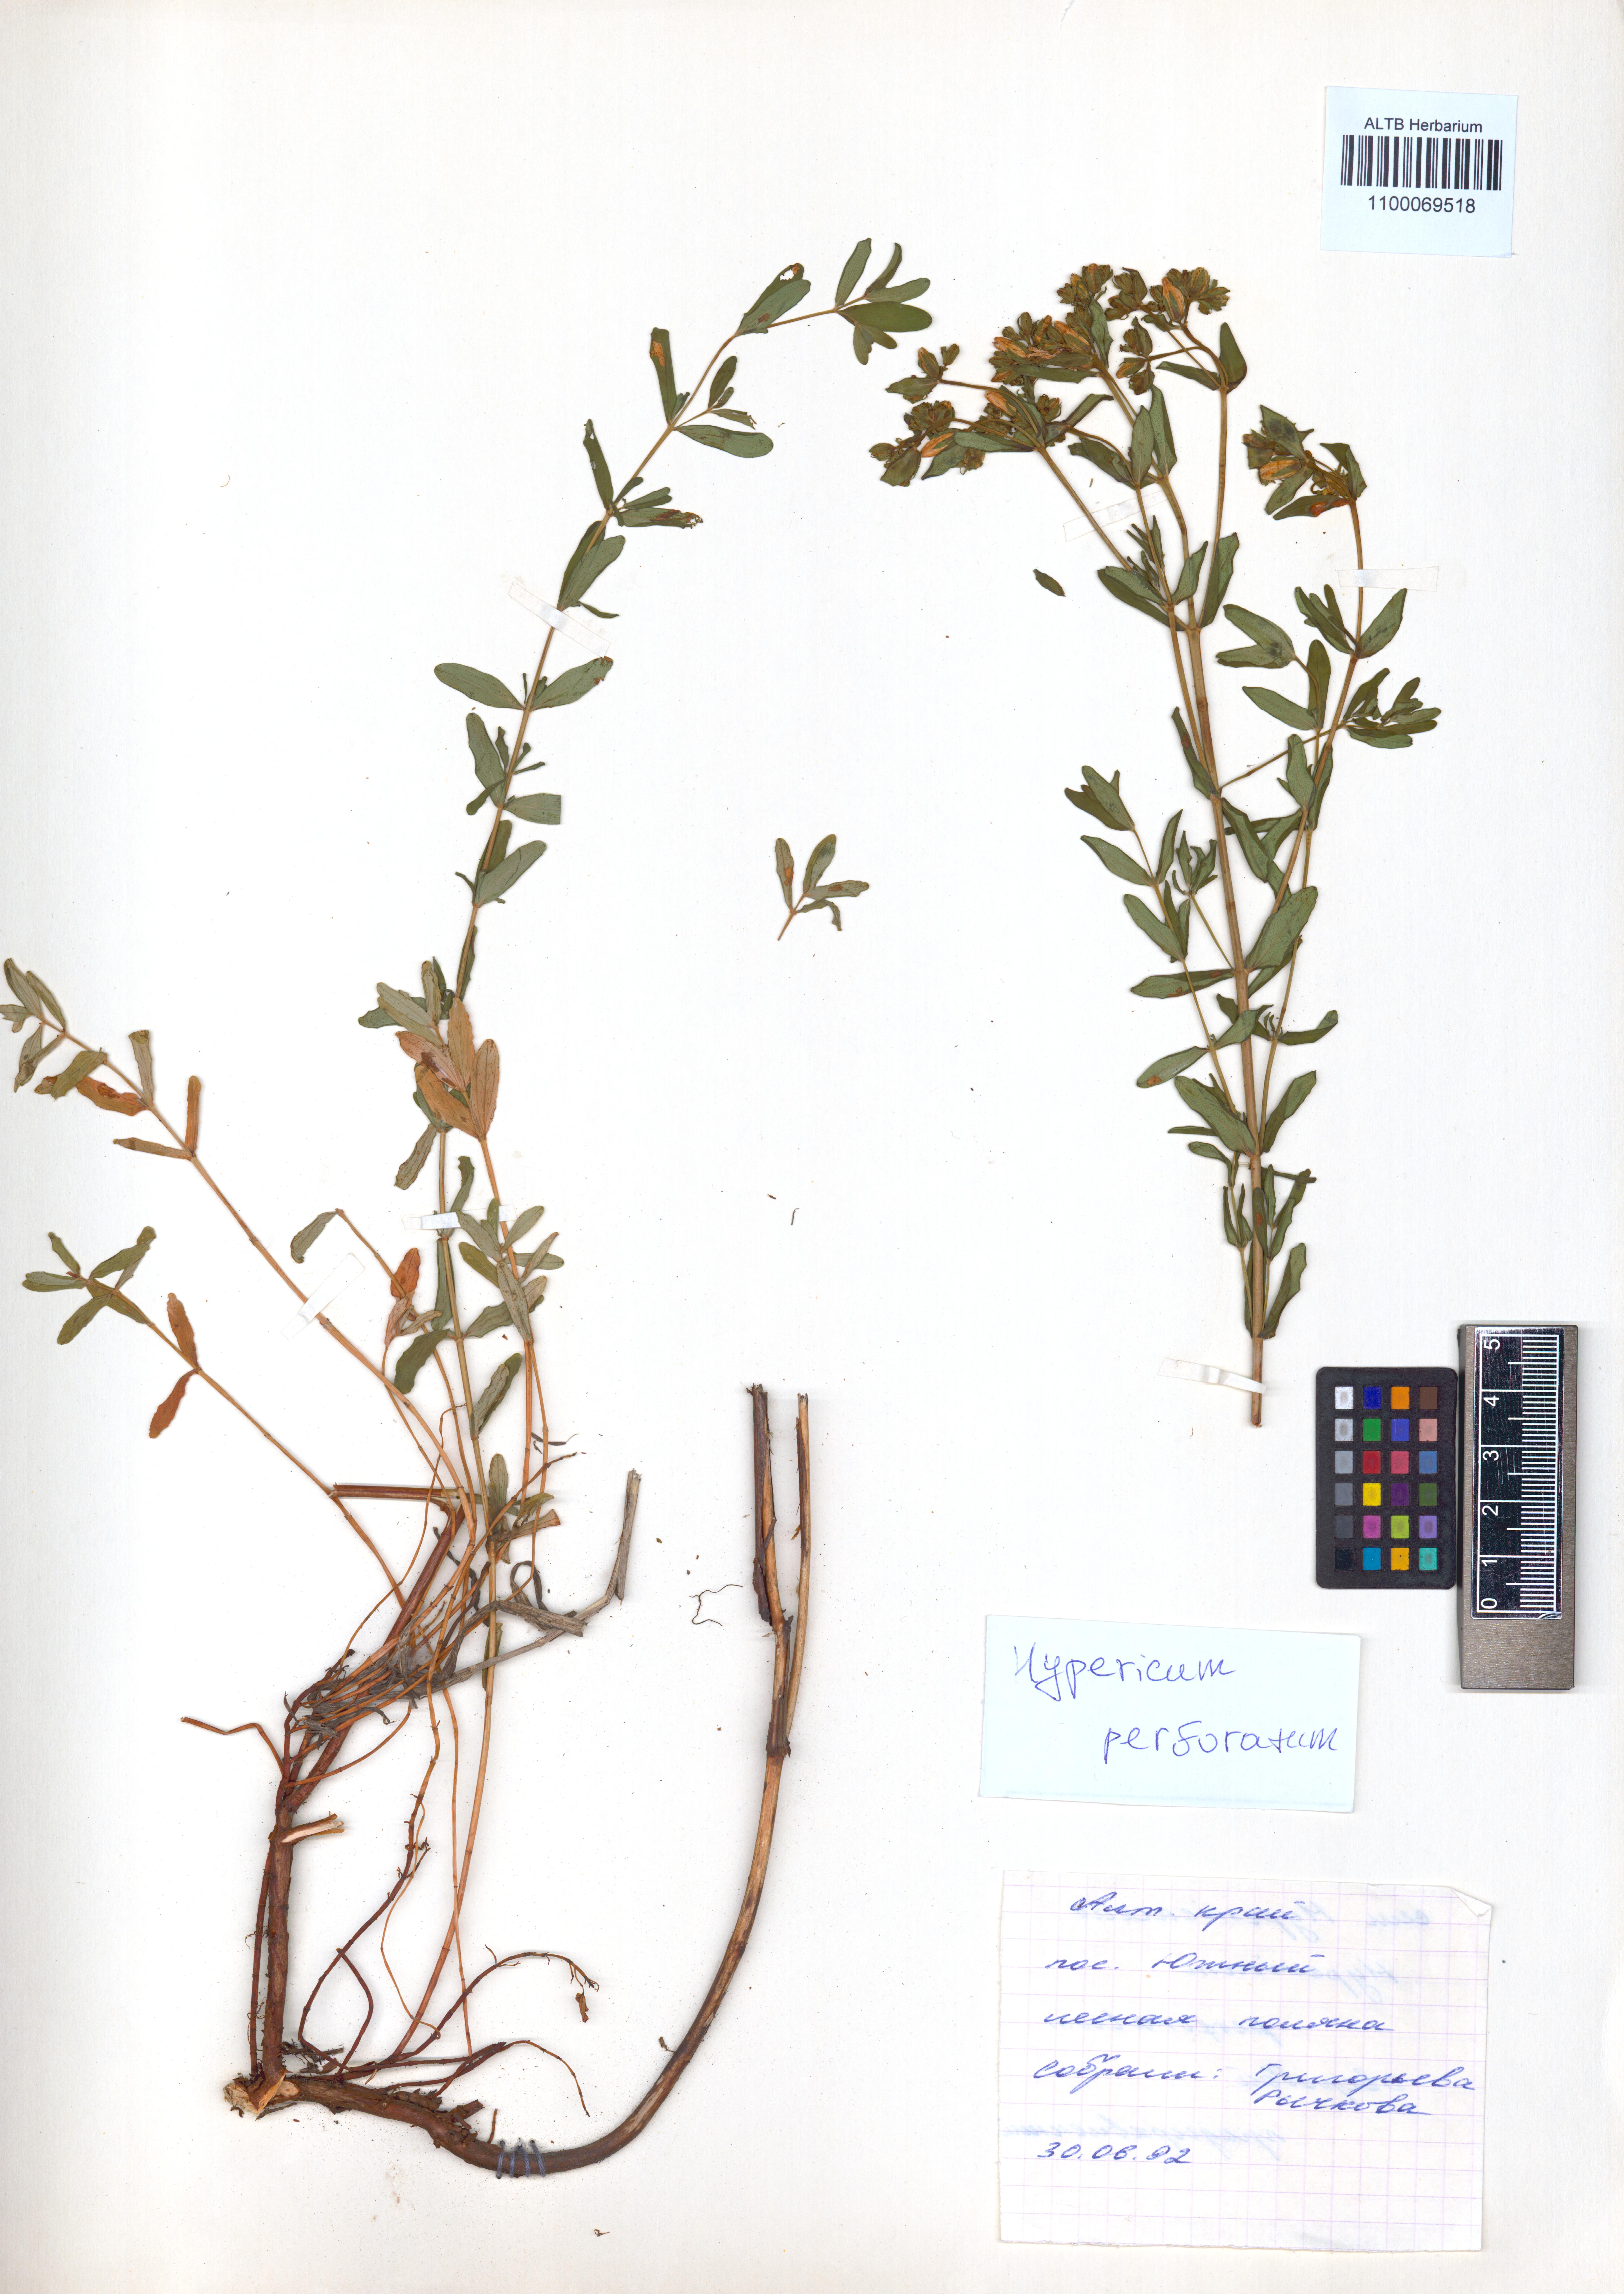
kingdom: Plantae
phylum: Tracheophyta
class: Magnoliopsida
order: Malpighiales
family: Hypericaceae
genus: Hypericum
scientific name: Hypericum perforatum
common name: Common st. johnswort
